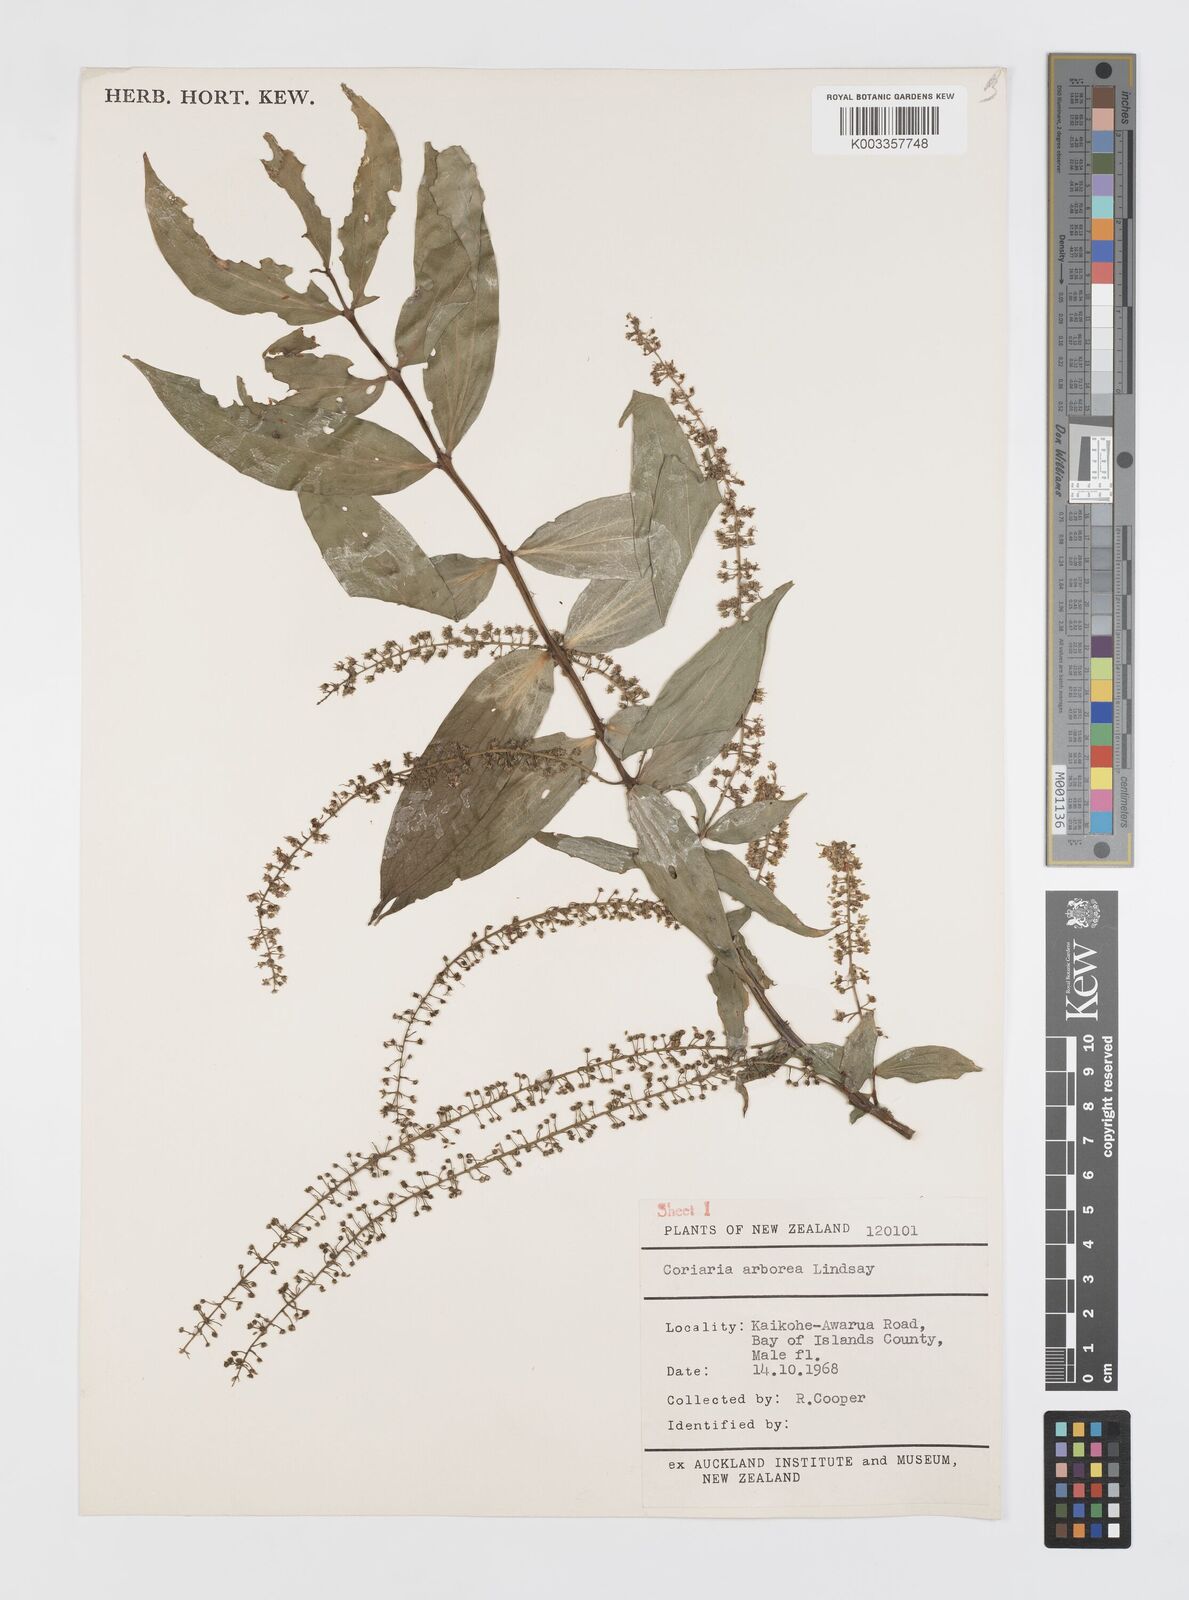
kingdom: Plantae
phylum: Tracheophyta
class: Magnoliopsida
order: Cucurbitales
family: Coriariaceae
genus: Coriaria
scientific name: Coriaria arborea
